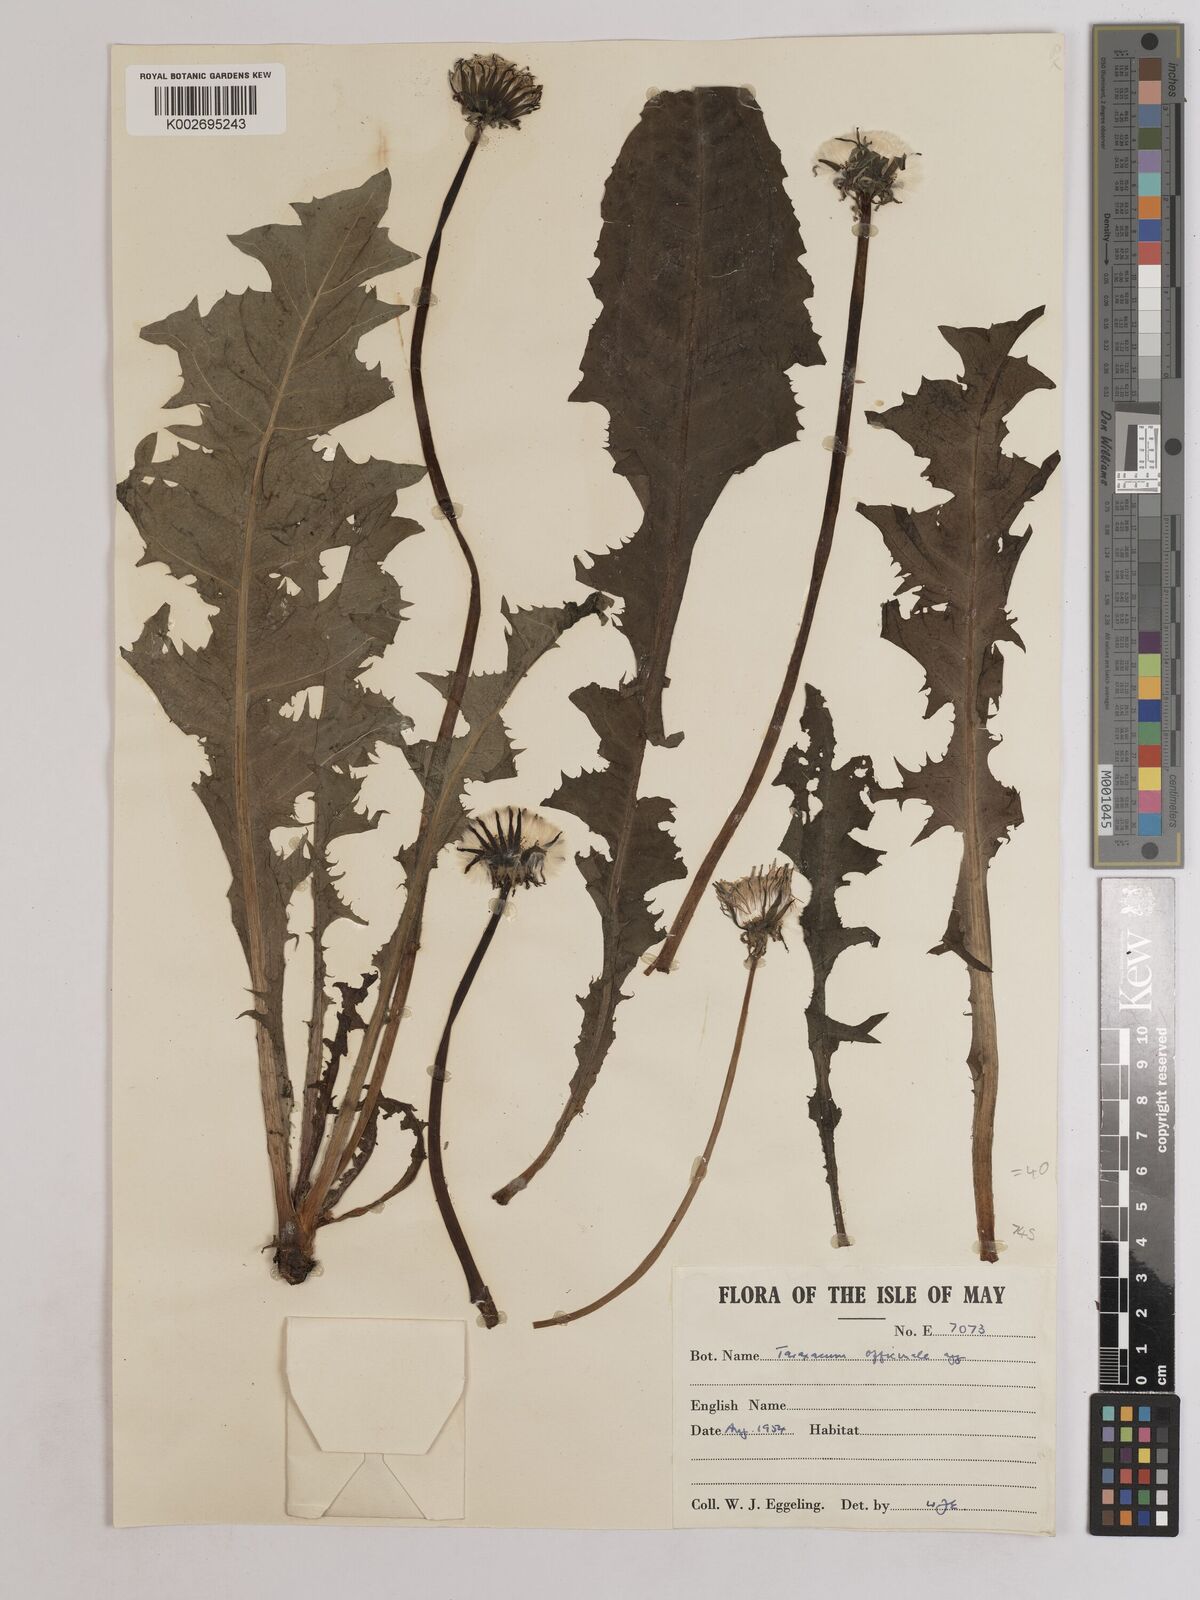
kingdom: Plantae
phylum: Tracheophyta
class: Magnoliopsida
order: Asterales
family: Asteraceae
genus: Taraxacum
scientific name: Taraxacum officinale
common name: Common dandelion
